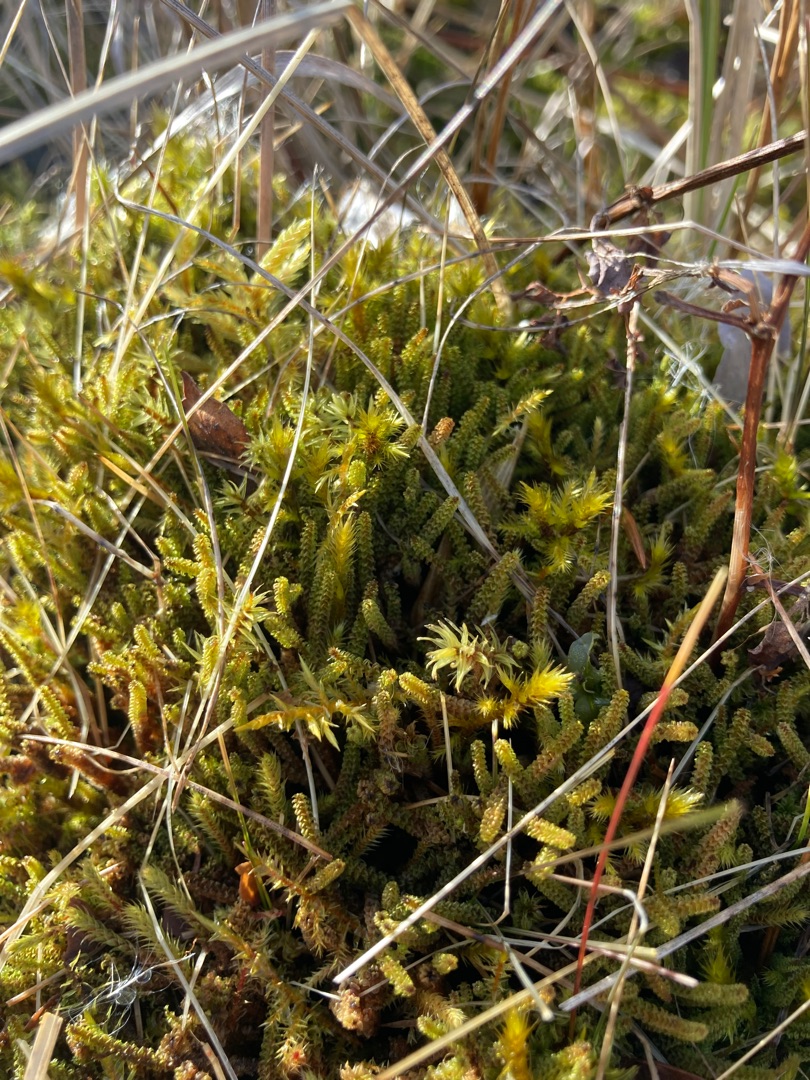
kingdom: Plantae
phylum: Bryophyta
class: Bryopsida
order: Splachnales
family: Meesiaceae
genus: Paludella
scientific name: Paludella squarrosa
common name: Almindelig piberensermos
